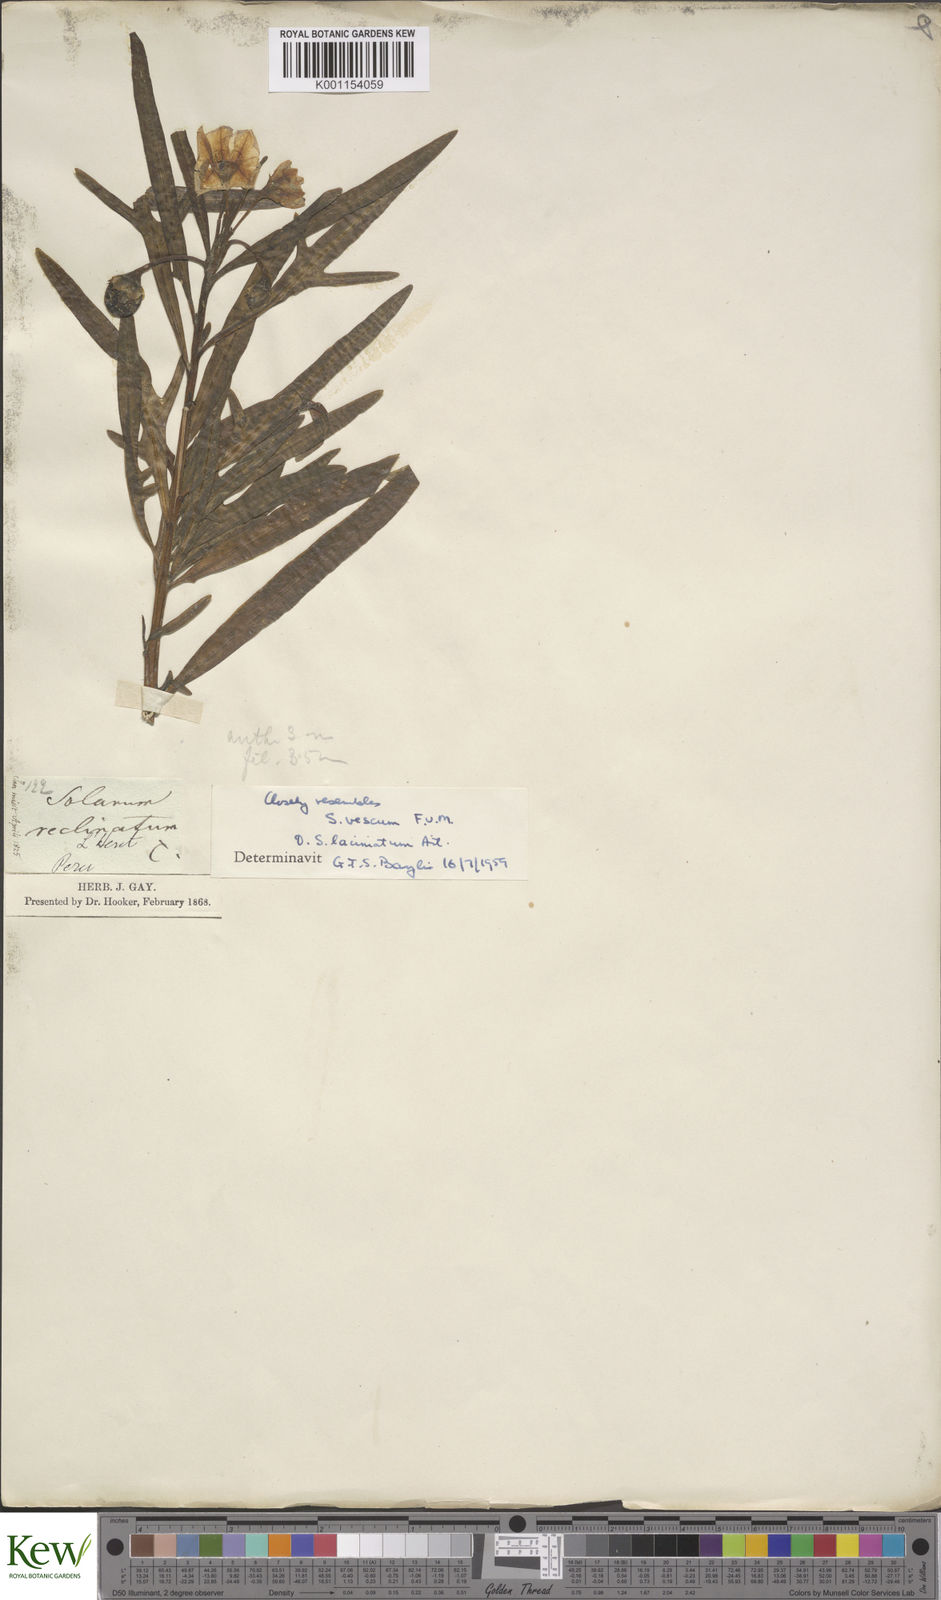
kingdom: Plantae
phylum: Tracheophyta
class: Magnoliopsida
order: Solanales
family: Solanaceae
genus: Solanum
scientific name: Solanum vescum
